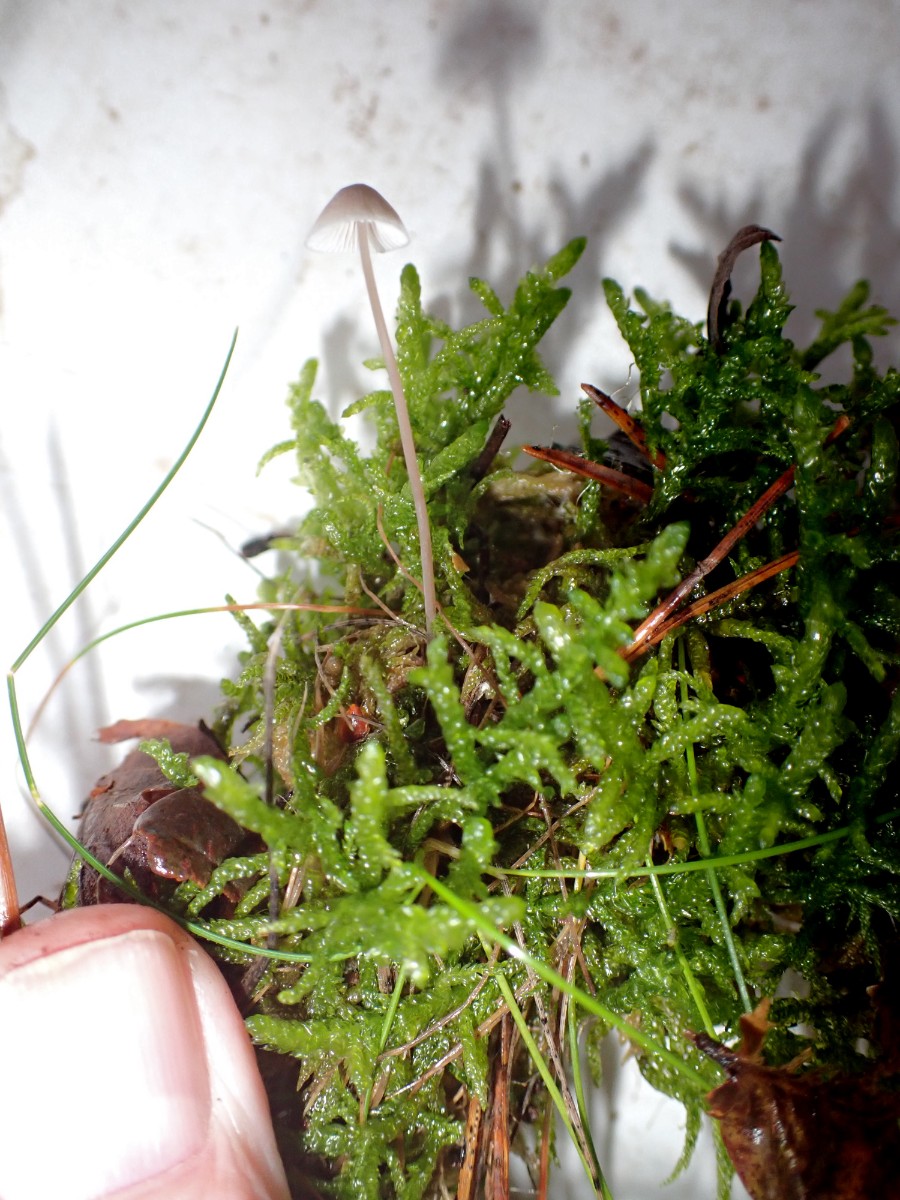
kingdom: Fungi
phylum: Basidiomycota
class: Agaricomycetes
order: Agaricales
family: Mycenaceae
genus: Mycena
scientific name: Mycena
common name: huesvamp
